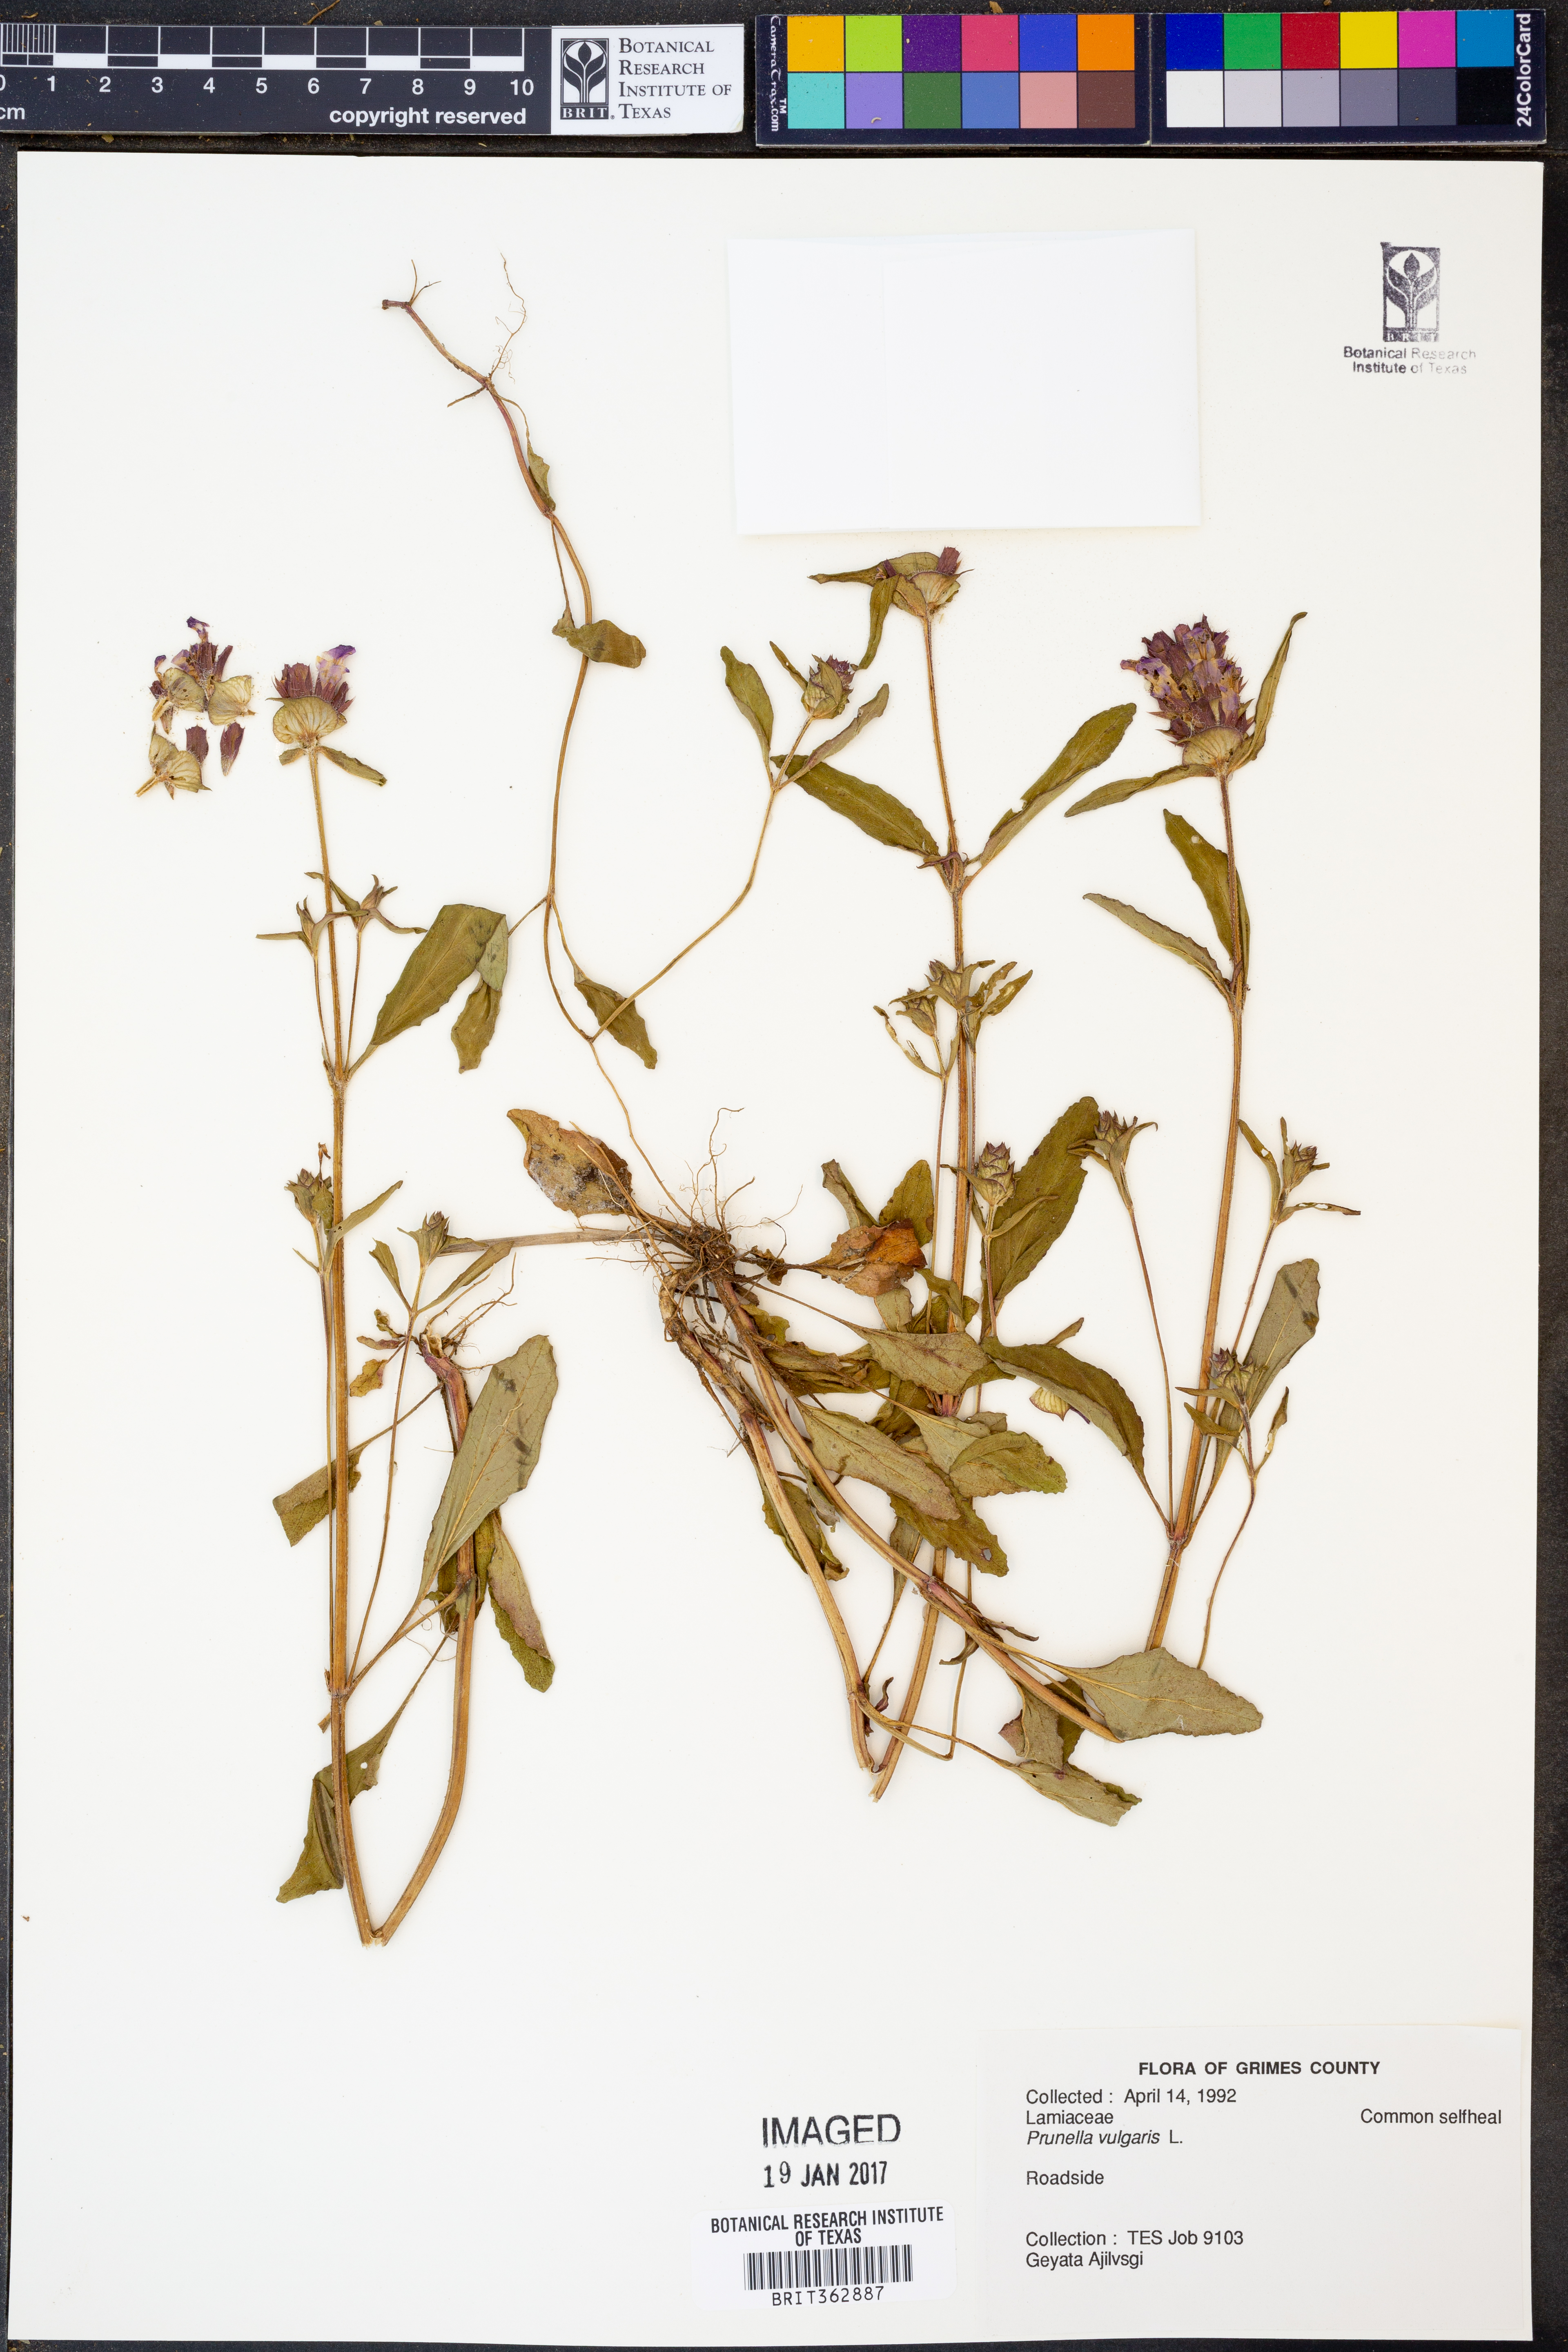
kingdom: Plantae
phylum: Tracheophyta
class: Magnoliopsida
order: Lamiales
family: Lamiaceae
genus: Prunella
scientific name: Prunella vulgaris
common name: Heal-all
